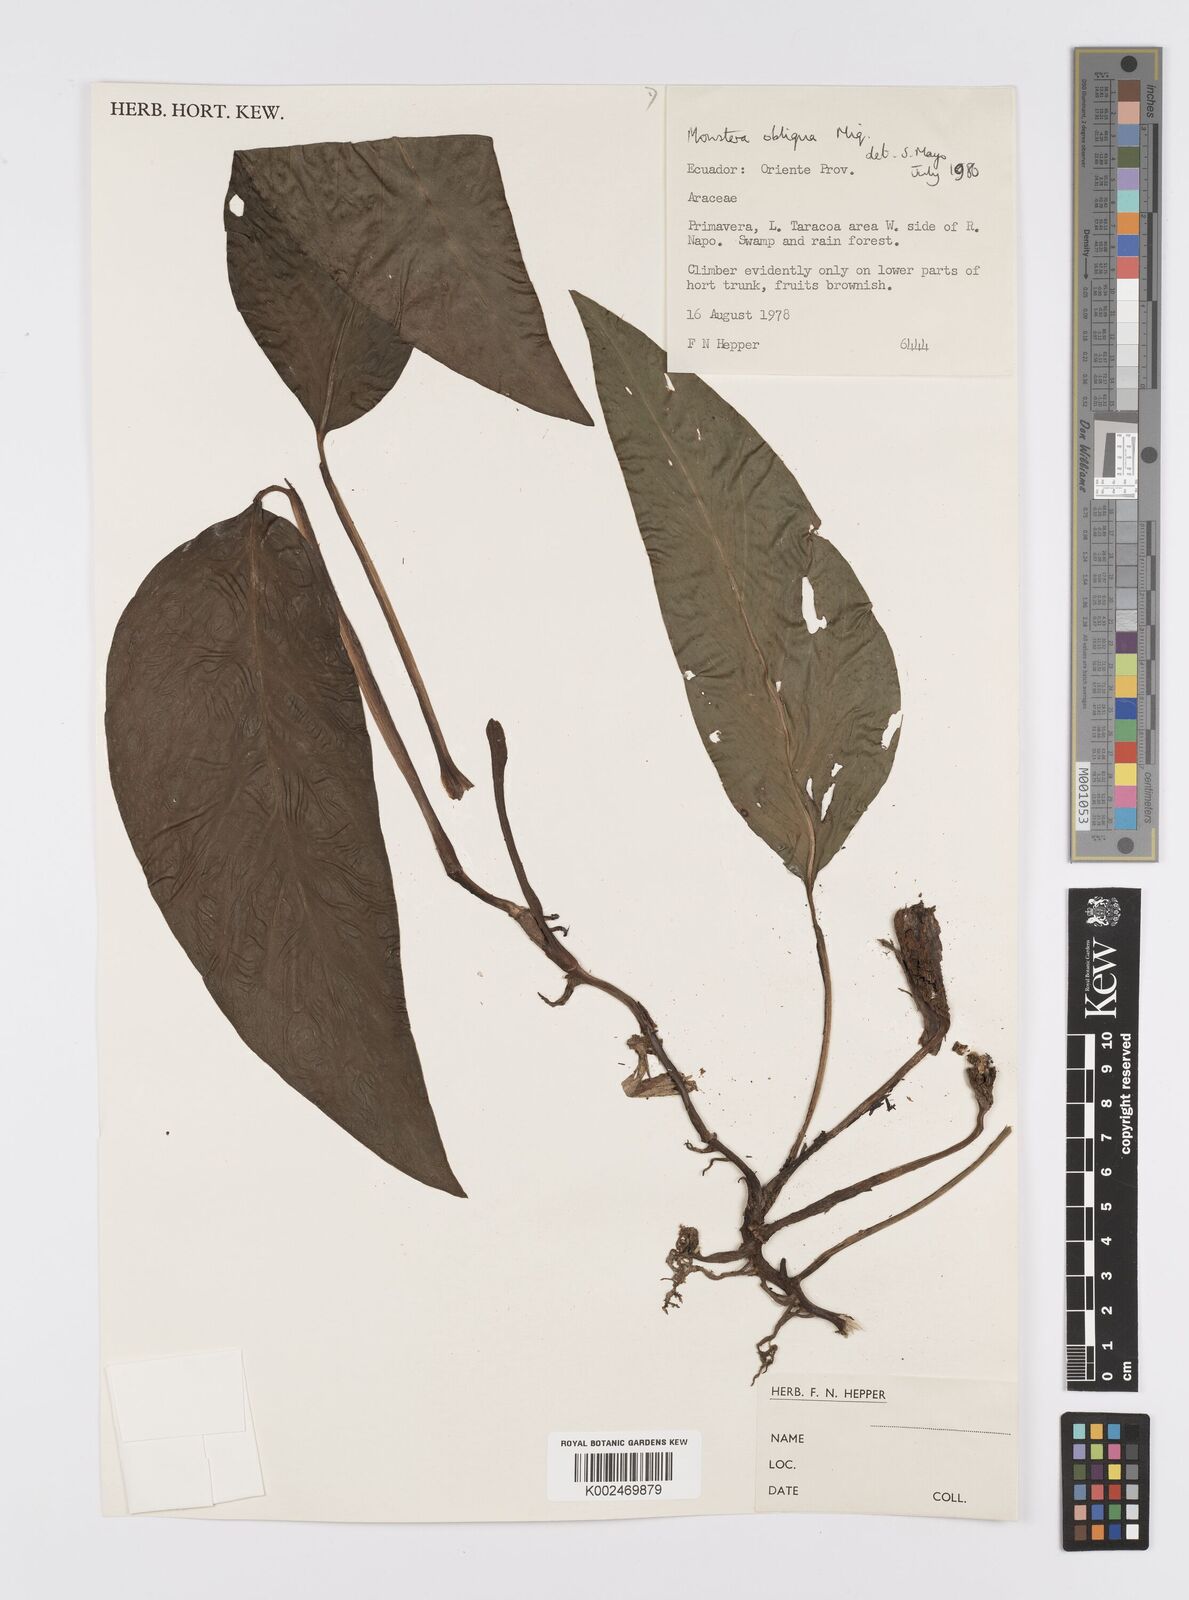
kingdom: Plantae
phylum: Tracheophyta
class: Liliopsida
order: Alismatales
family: Araceae
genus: Monstera
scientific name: Monstera obliqua
